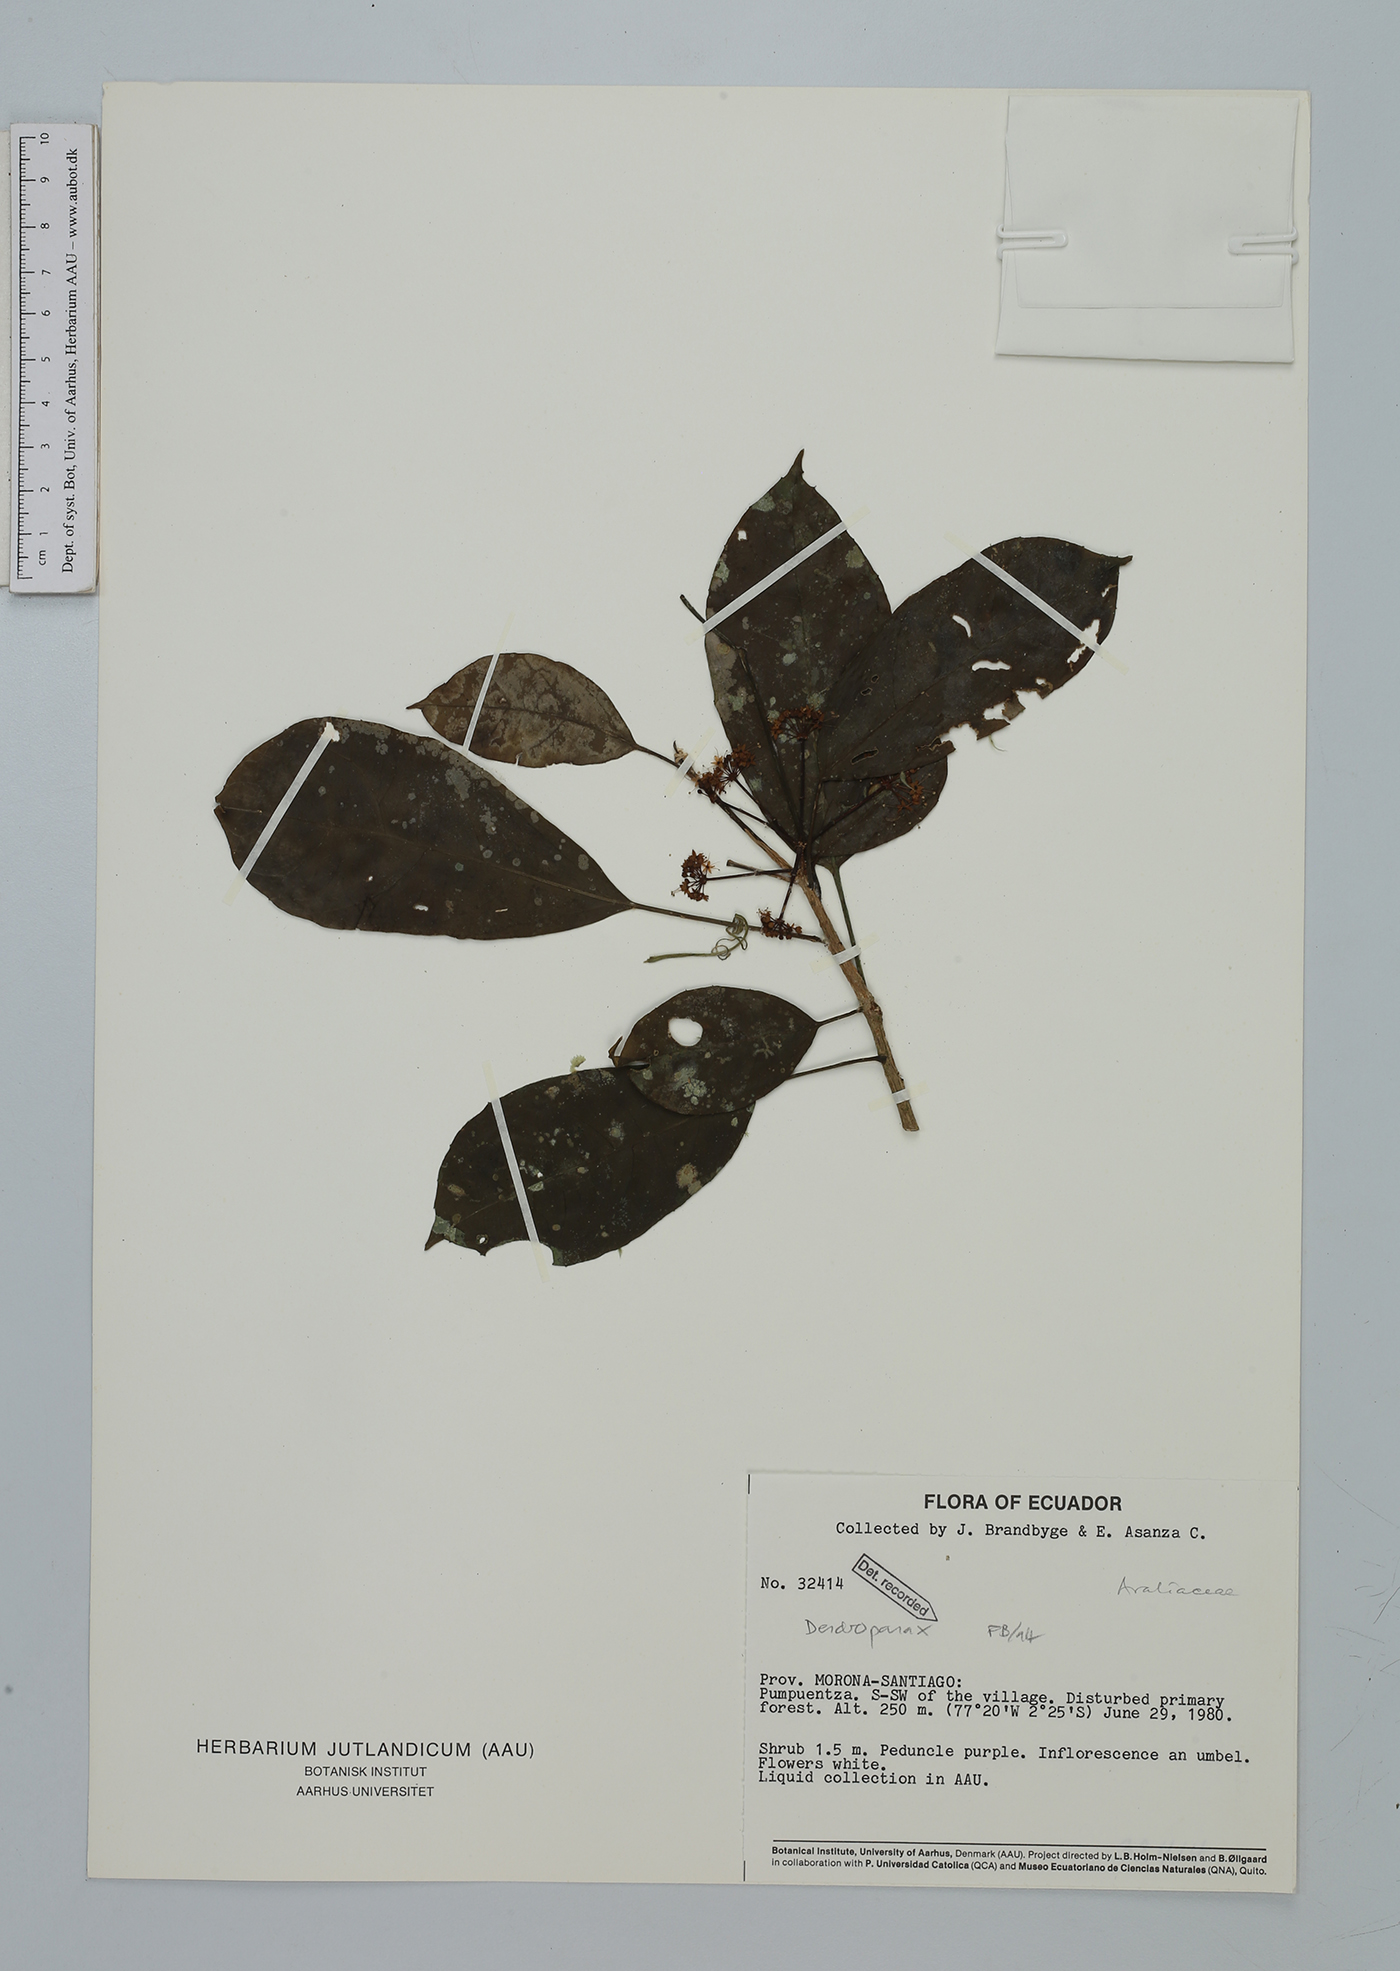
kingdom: Plantae
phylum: Tracheophyta
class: Magnoliopsida
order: Apiales
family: Araliaceae
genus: Dendropanax
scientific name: Dendropanax
